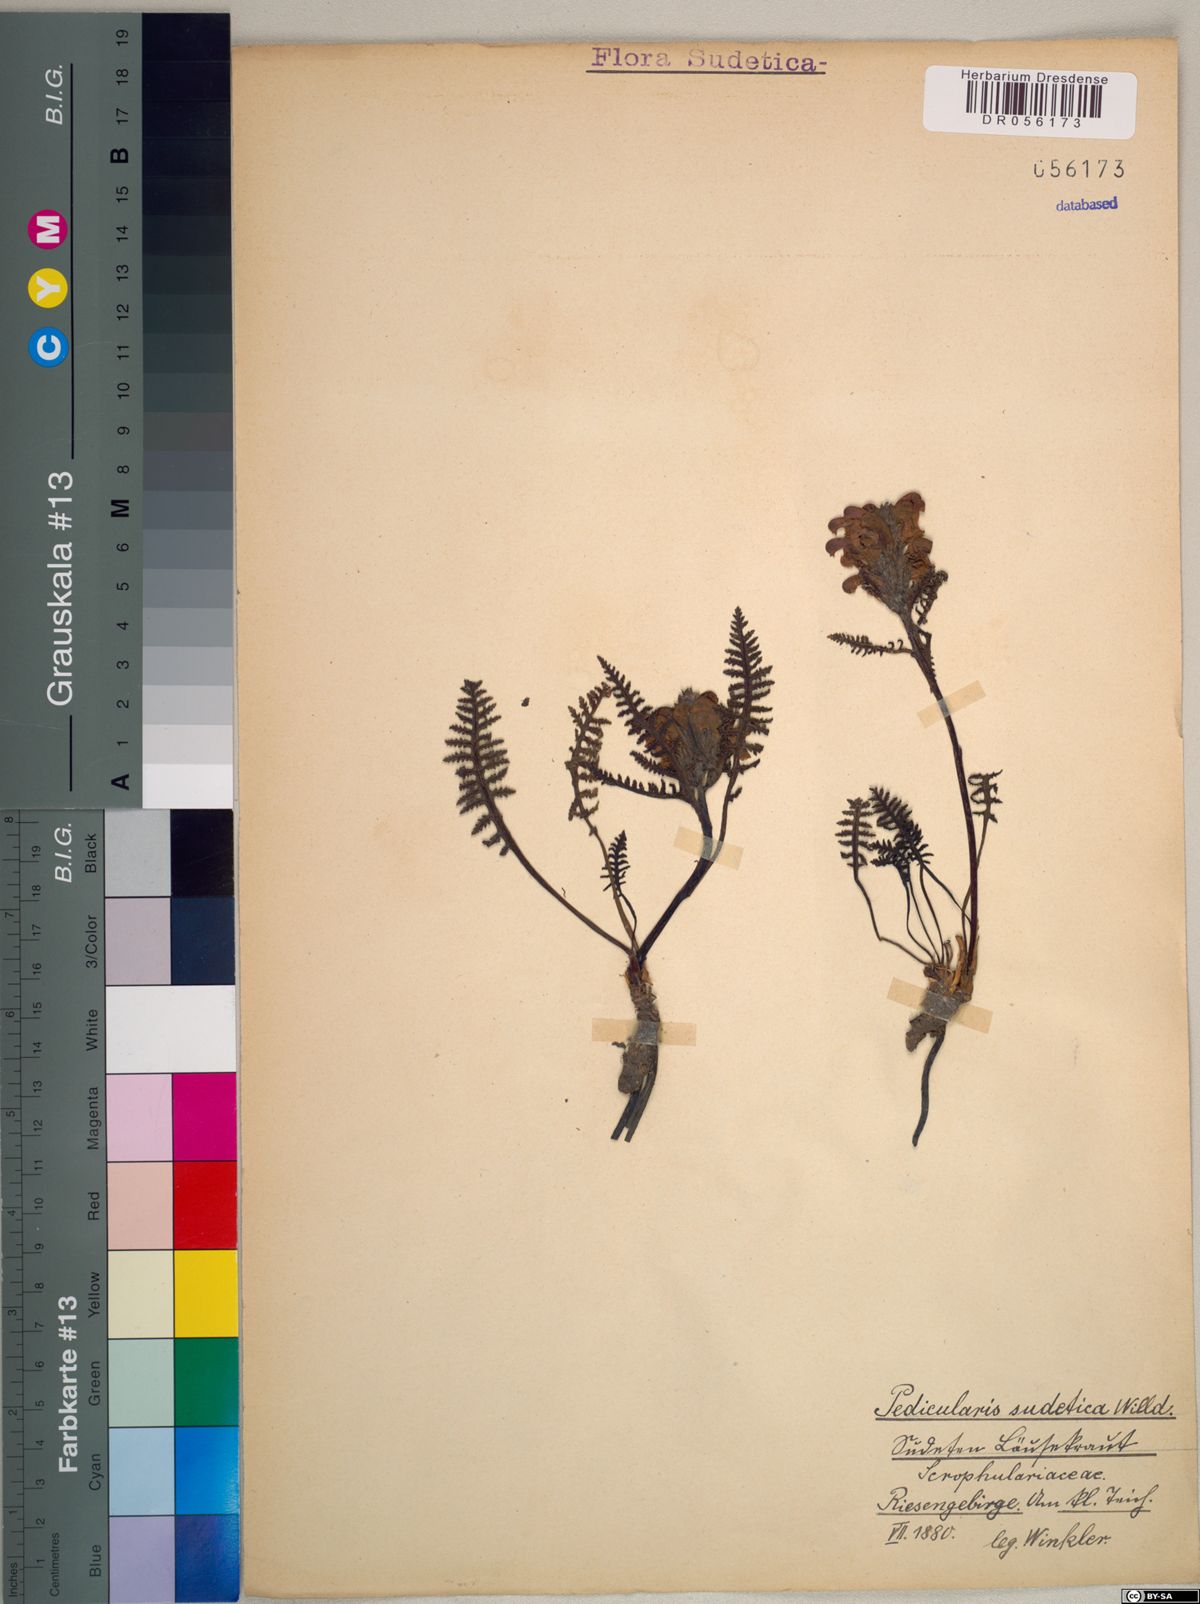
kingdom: Plantae
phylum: Tracheophyta
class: Magnoliopsida
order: Lamiales
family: Orobanchaceae
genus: Pedicularis
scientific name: Pedicularis sudetica
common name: Sudeten lousewort
